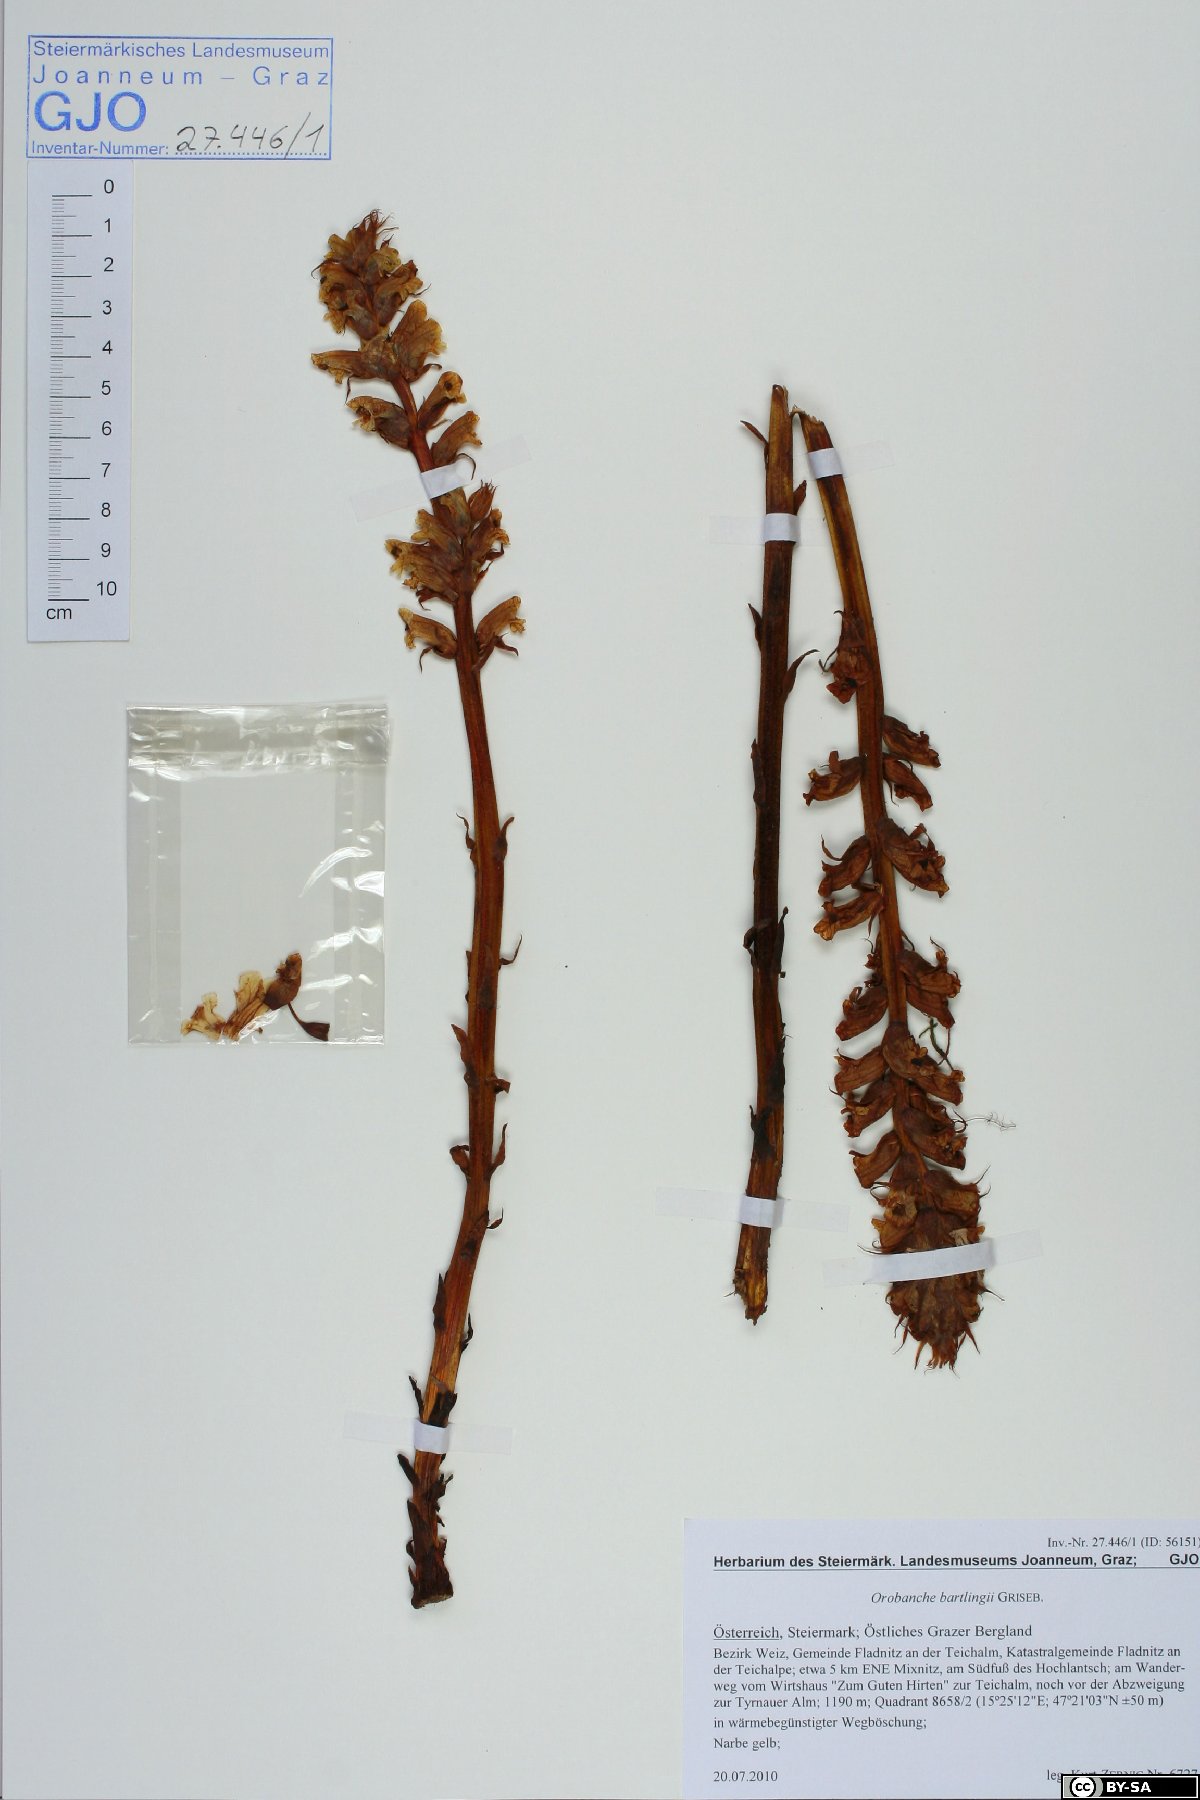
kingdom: Plantae
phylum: Tracheophyta
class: Magnoliopsida
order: Lamiales
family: Orobanchaceae
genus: Orobanche
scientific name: Orobanche alsatica
